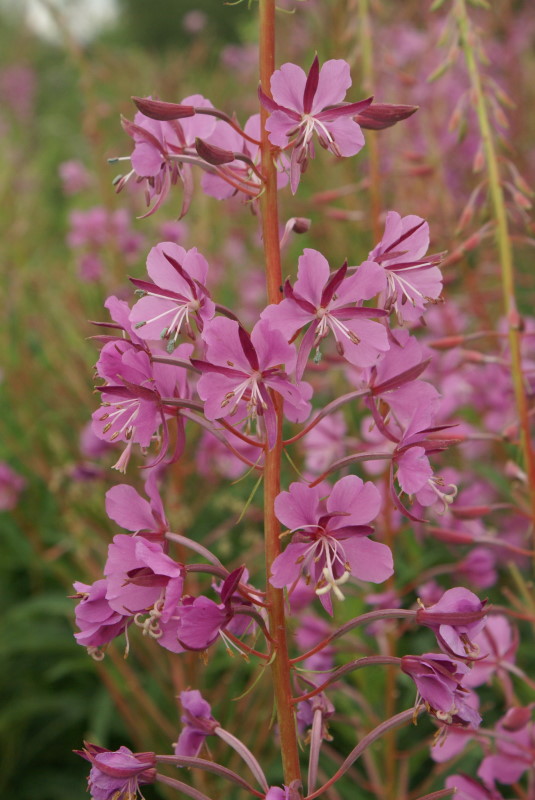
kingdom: Plantae
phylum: Tracheophyta
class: Magnoliopsida
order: Myrtales
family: Onagraceae
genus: Chamaenerion
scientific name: Chamaenerion angustifolium
